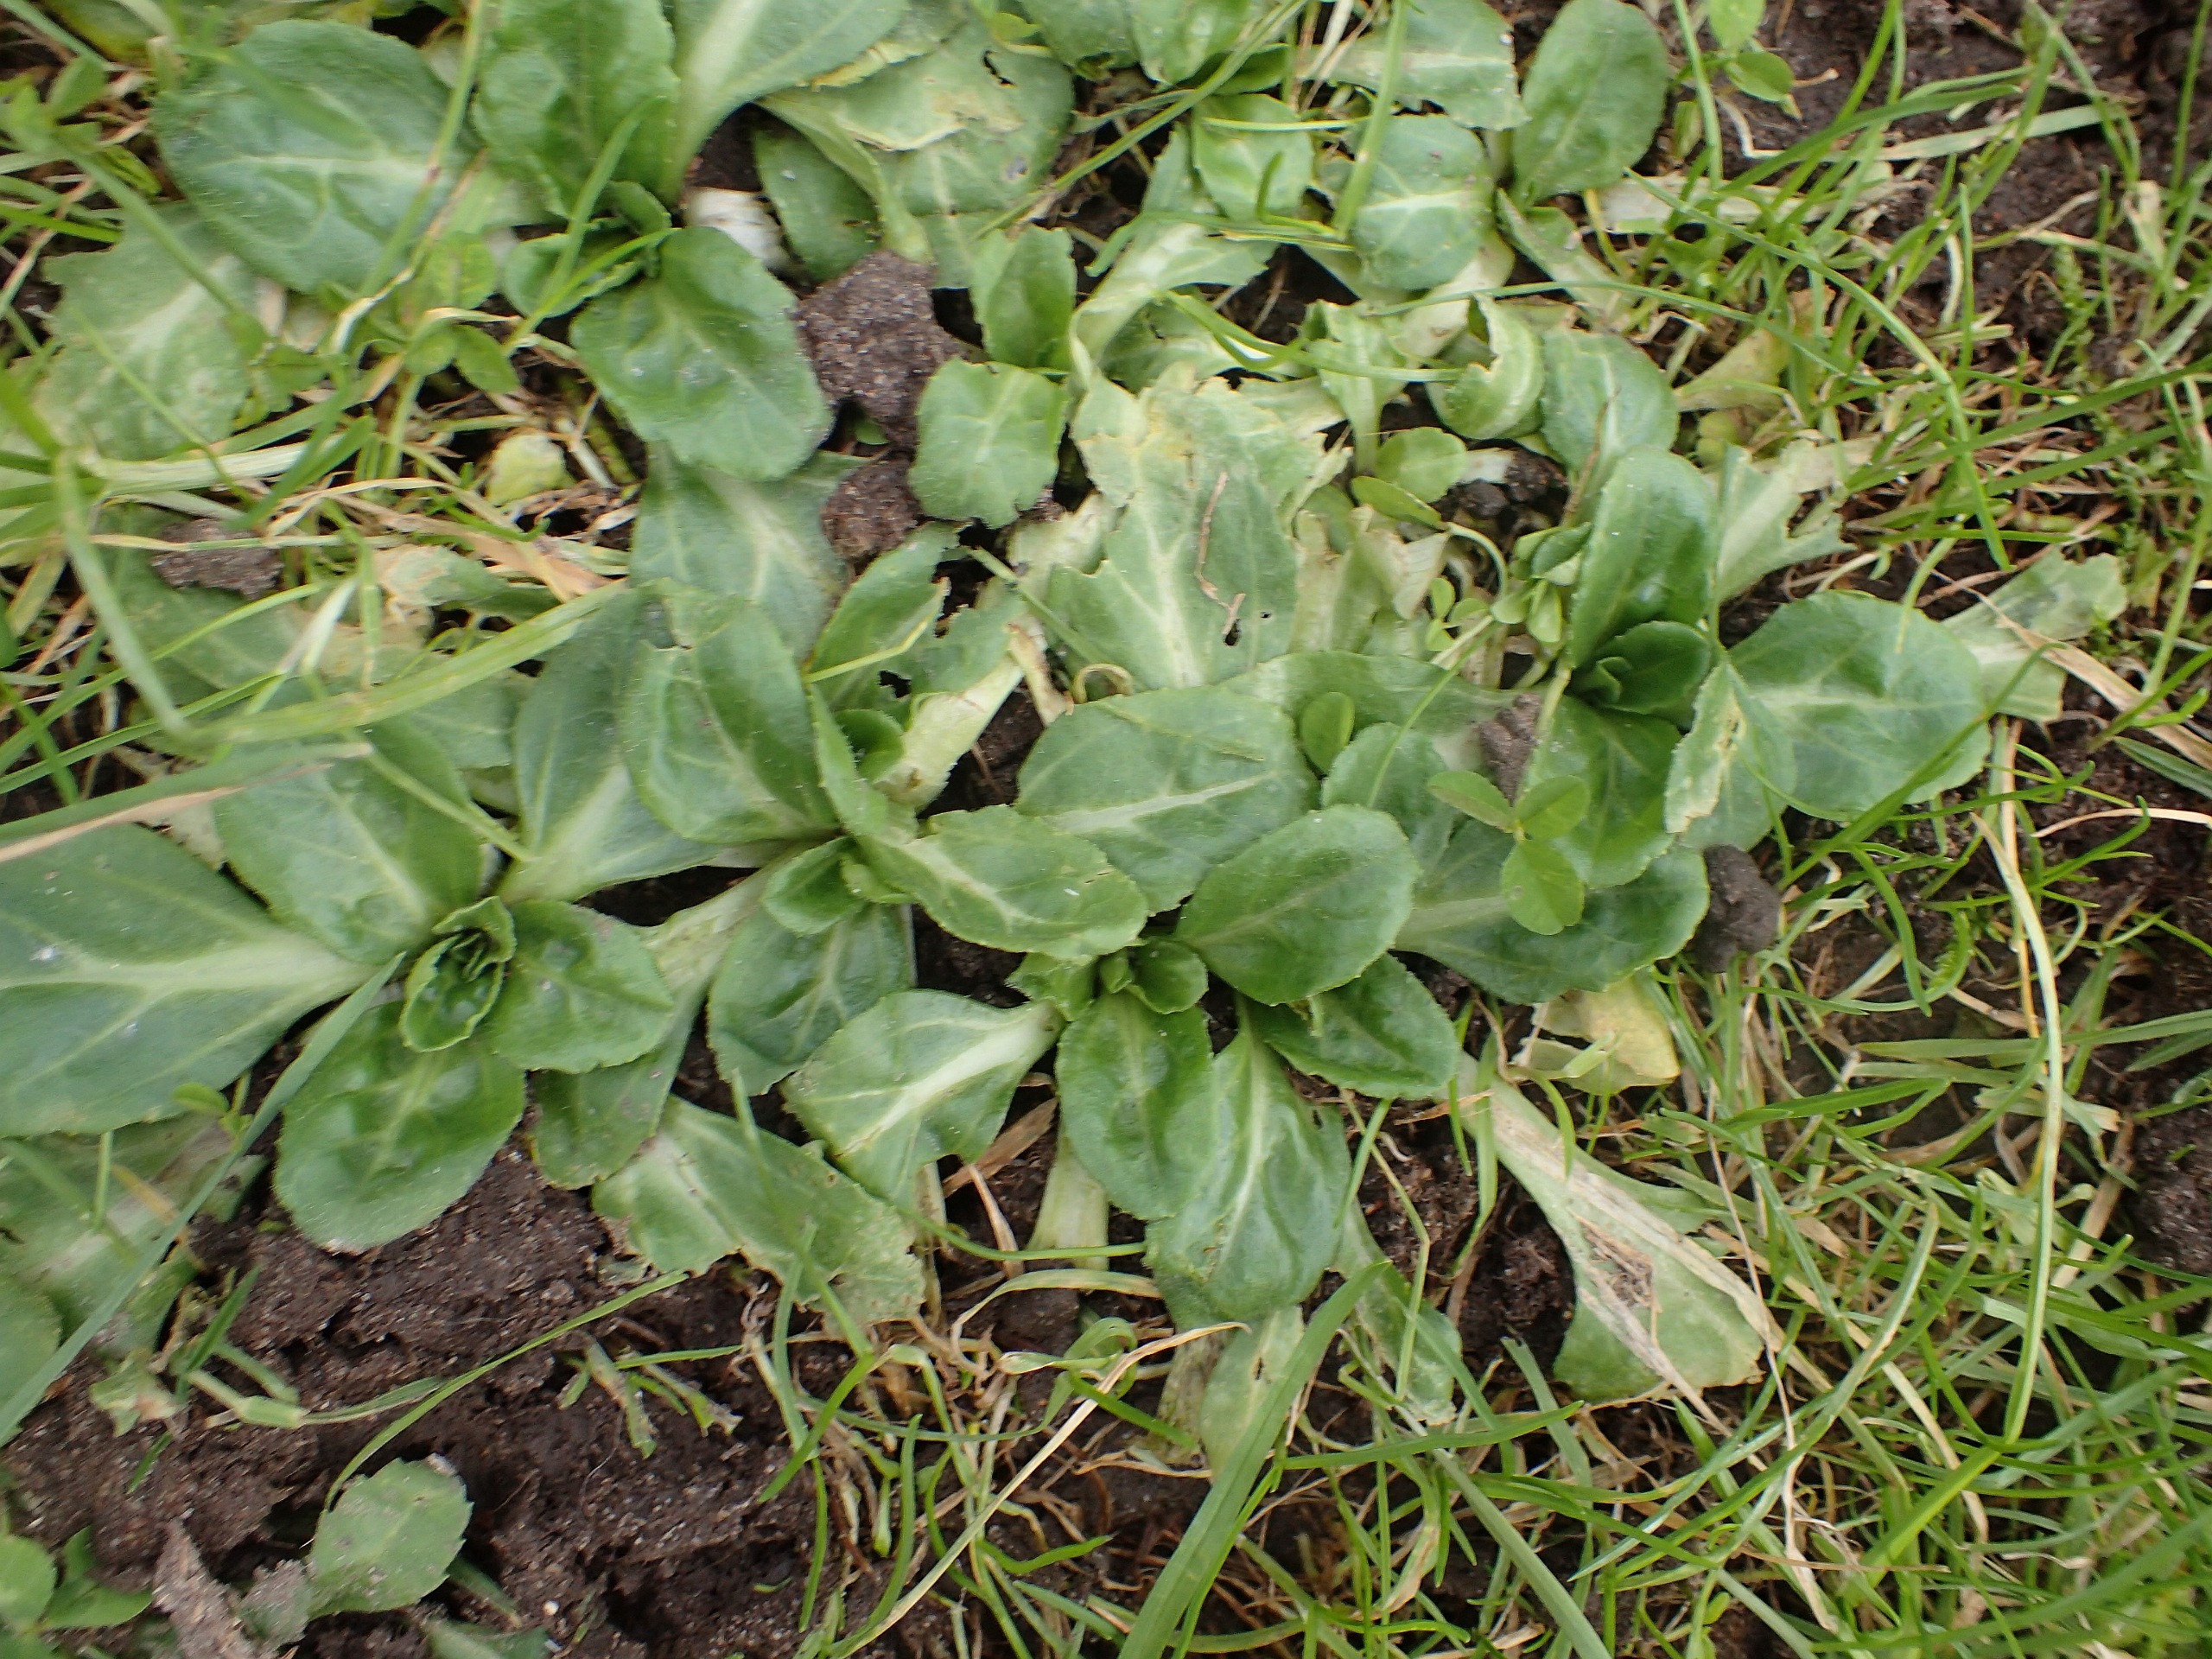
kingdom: Plantae
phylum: Tracheophyta
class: Magnoliopsida
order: Asterales
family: Asteraceae
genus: Bellis
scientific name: Bellis perennis
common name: Tusindfryd
